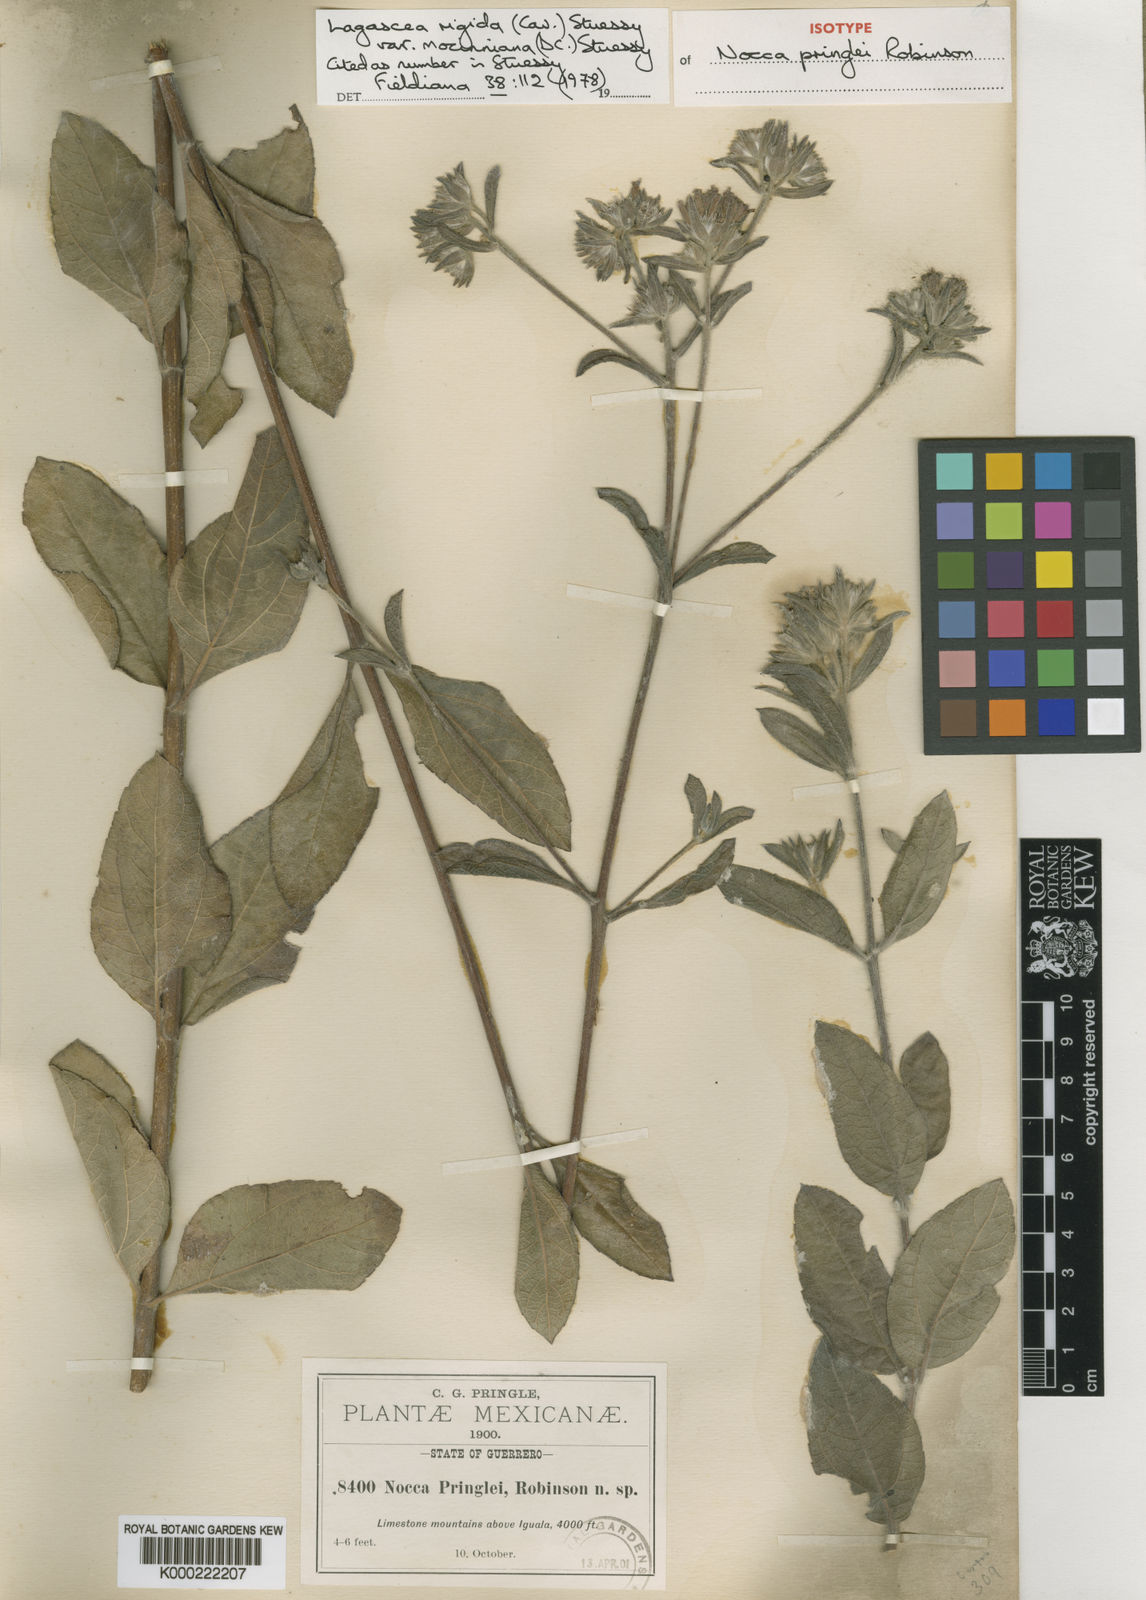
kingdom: Plantae
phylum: Tracheophyta
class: Magnoliopsida
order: Asterales
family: Asteraceae
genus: Lagascea
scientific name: Lagascea rigida
